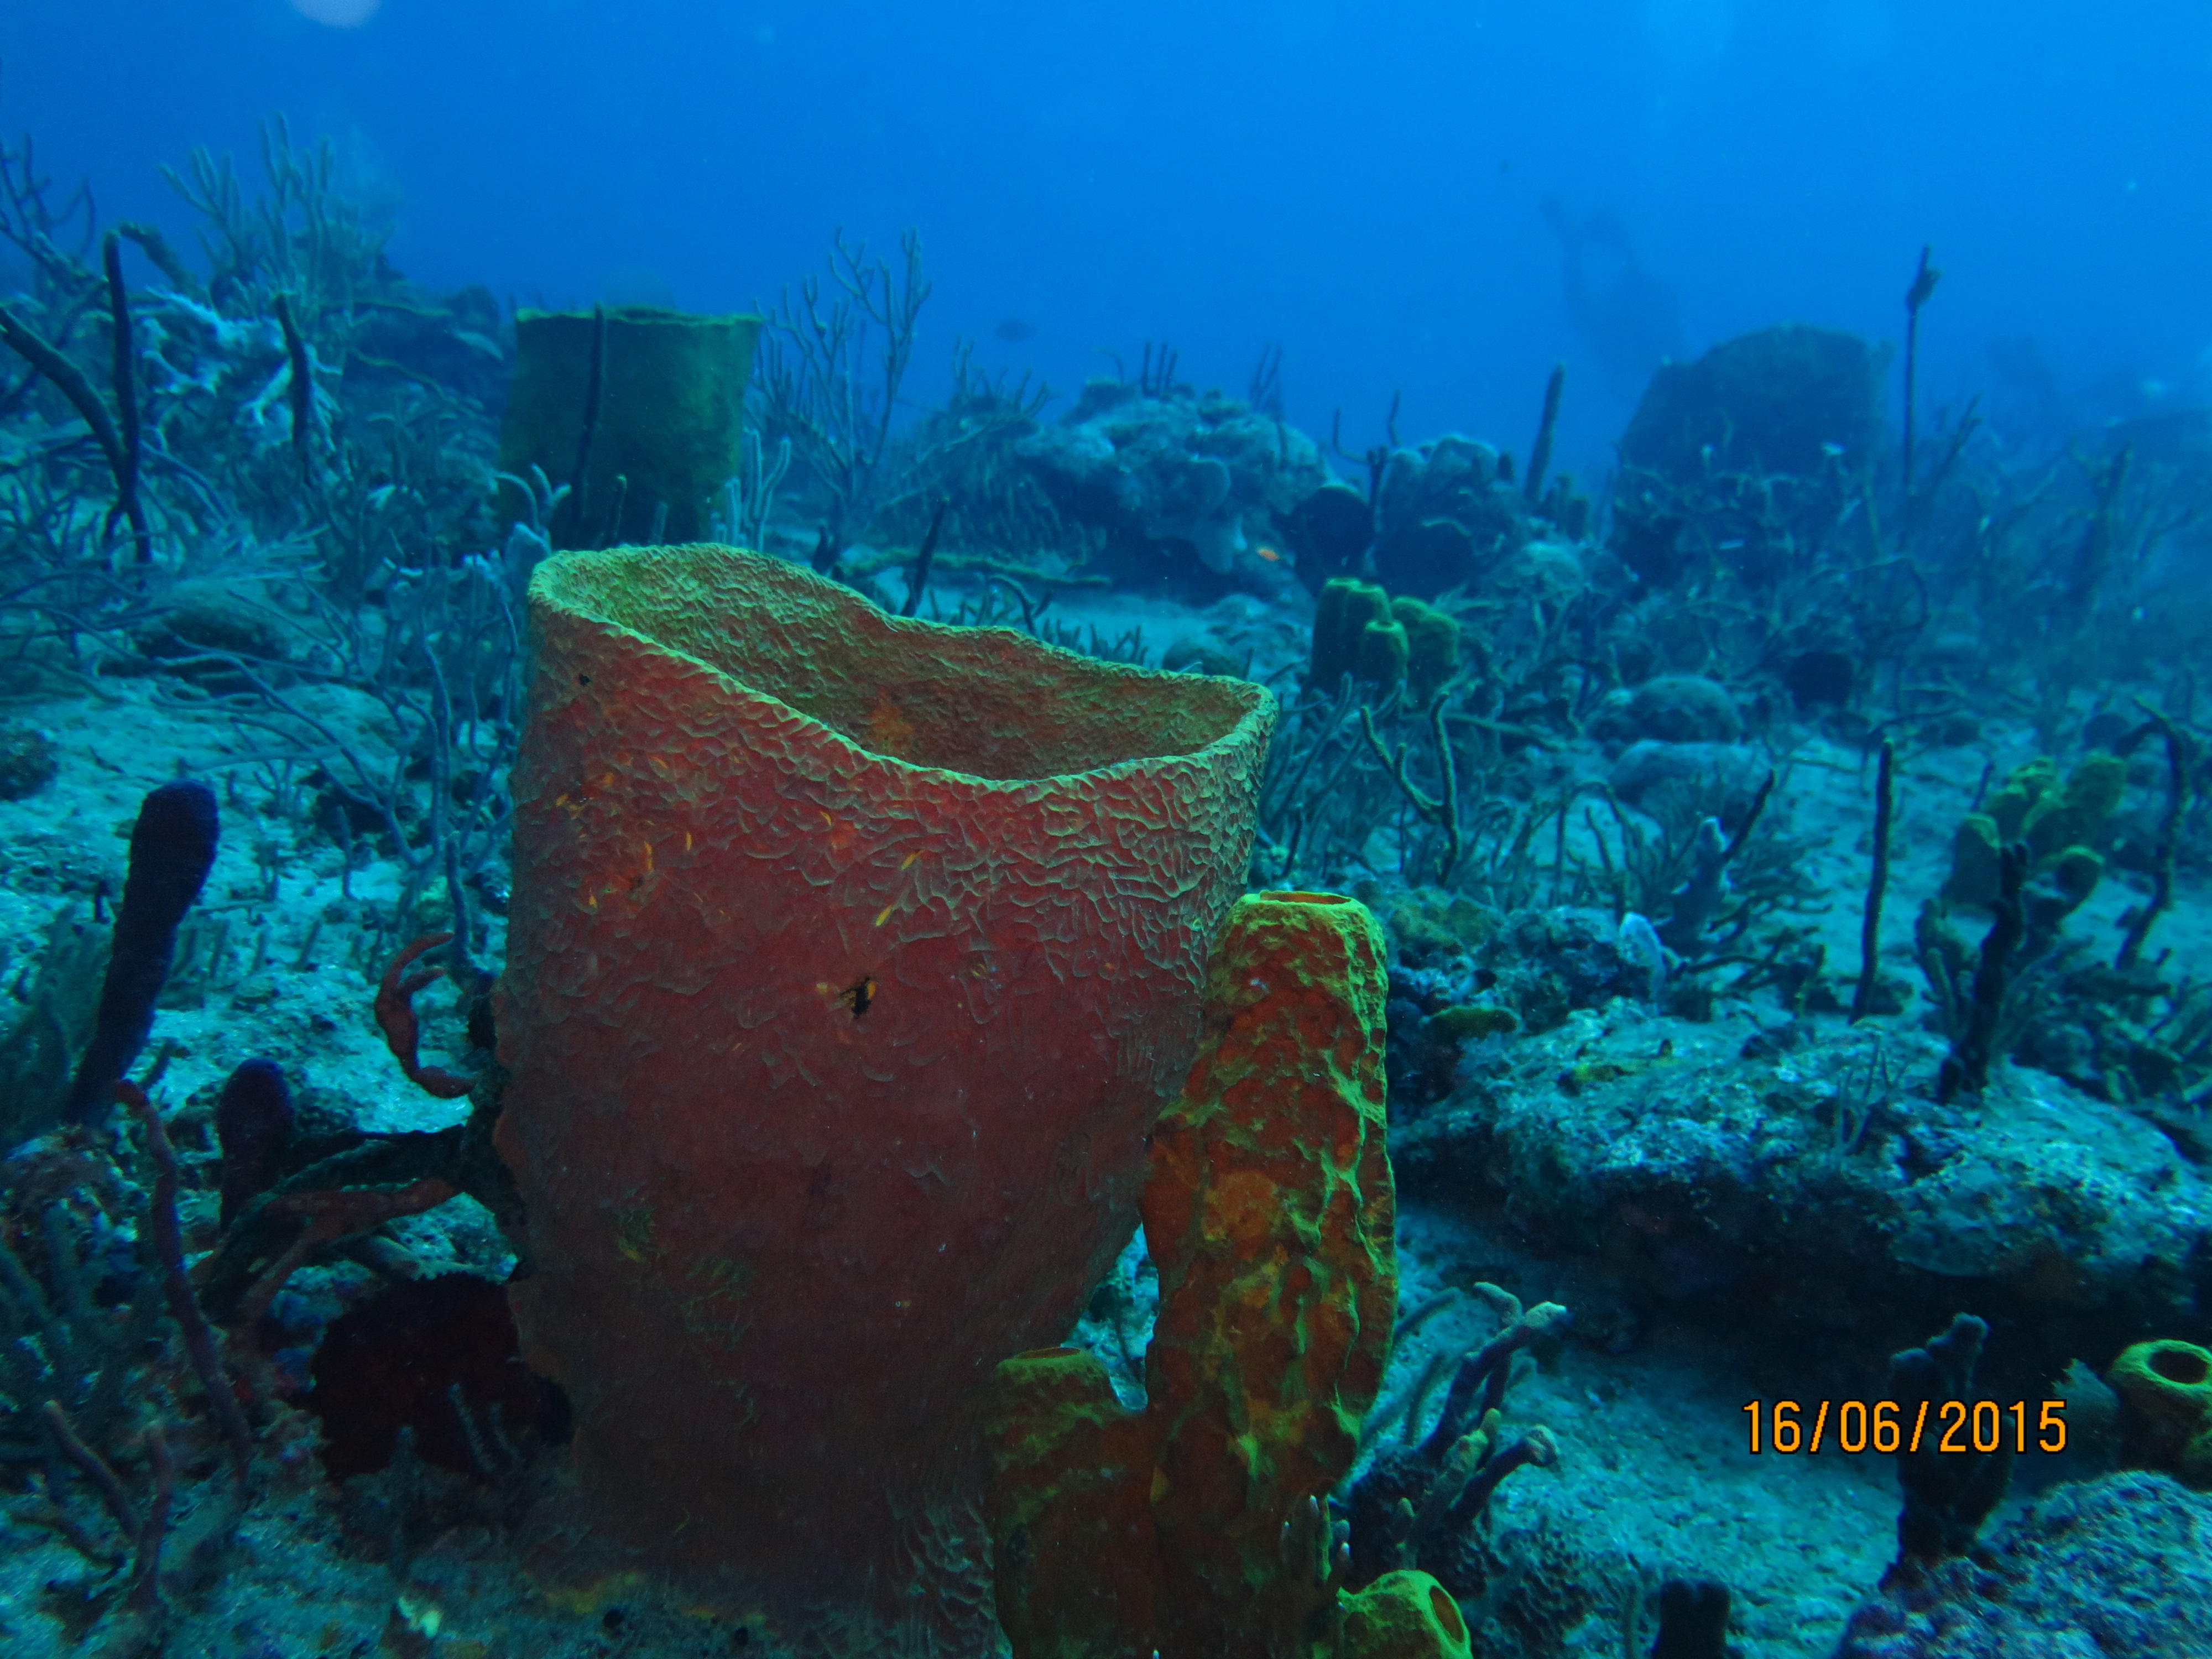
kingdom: Animalia
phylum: Porifera
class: Demospongiae
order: Verongiida
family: Aplysinidae
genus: Verongula
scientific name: Verongula gigantea
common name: Netted barrel sponge
